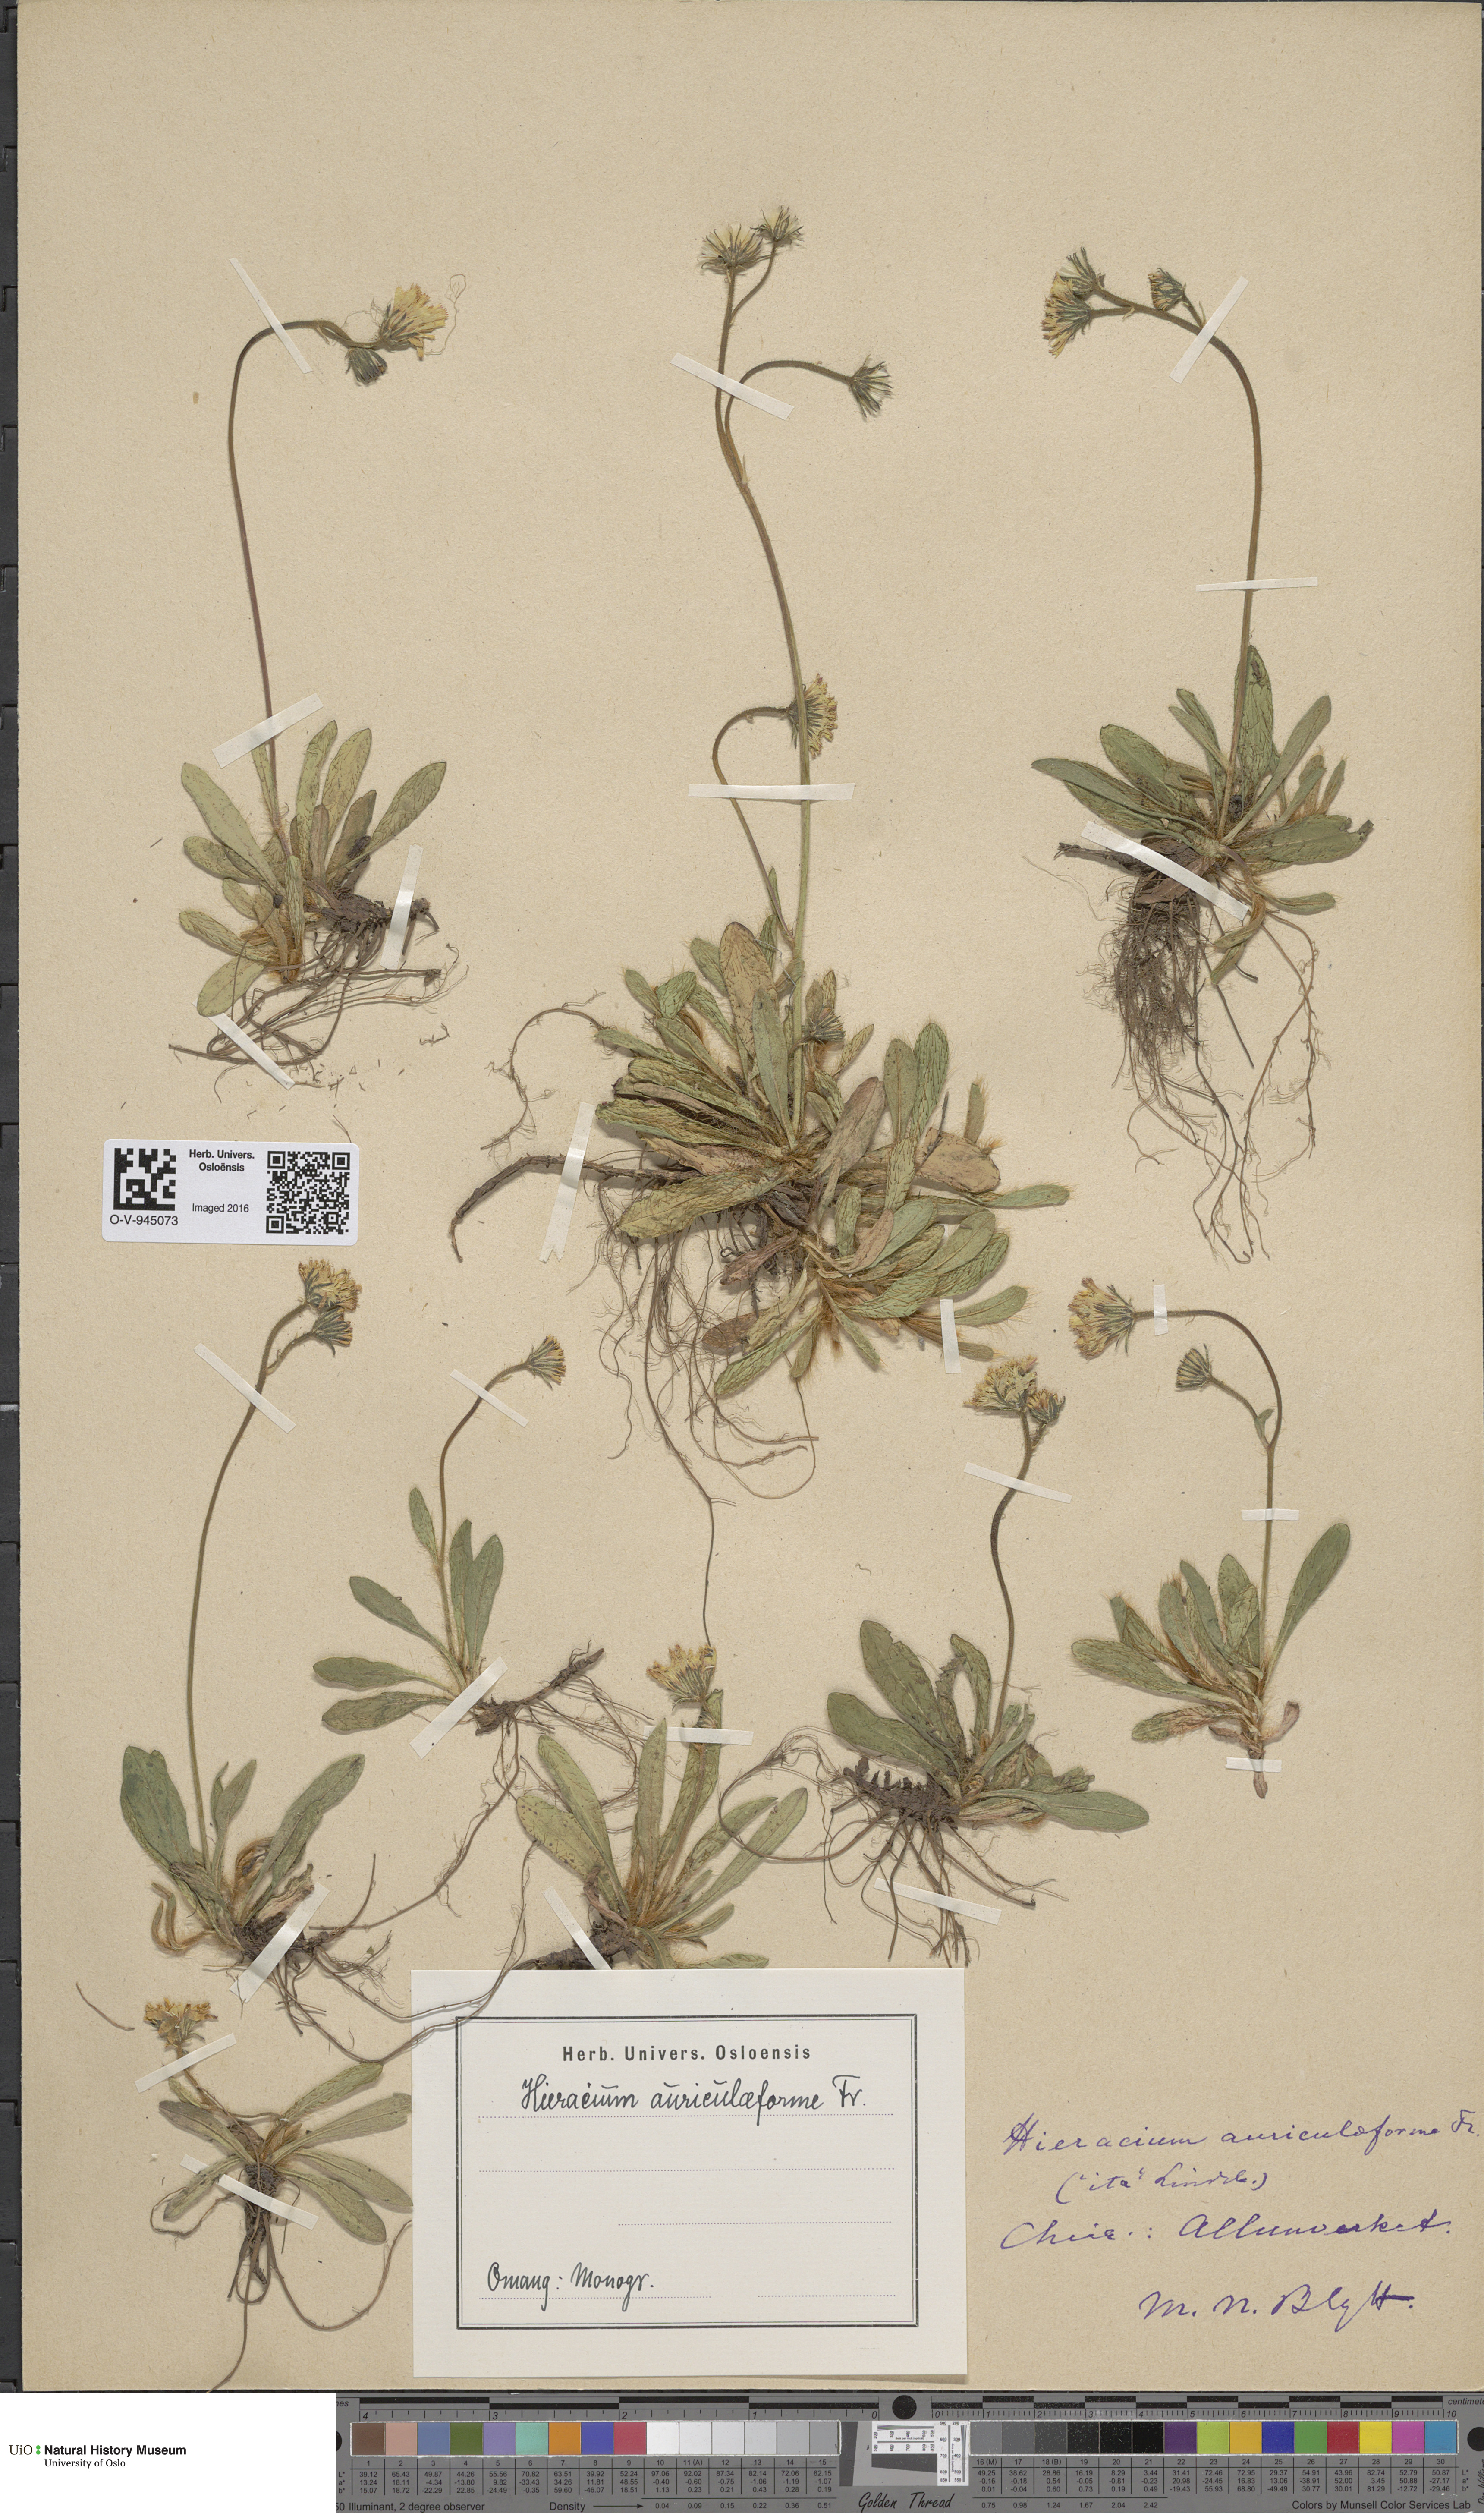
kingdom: Plantae
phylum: Tracheophyta
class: Magnoliopsida
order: Asterales
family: Asteraceae
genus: Pilosella
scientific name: Pilosella auriculiformis
